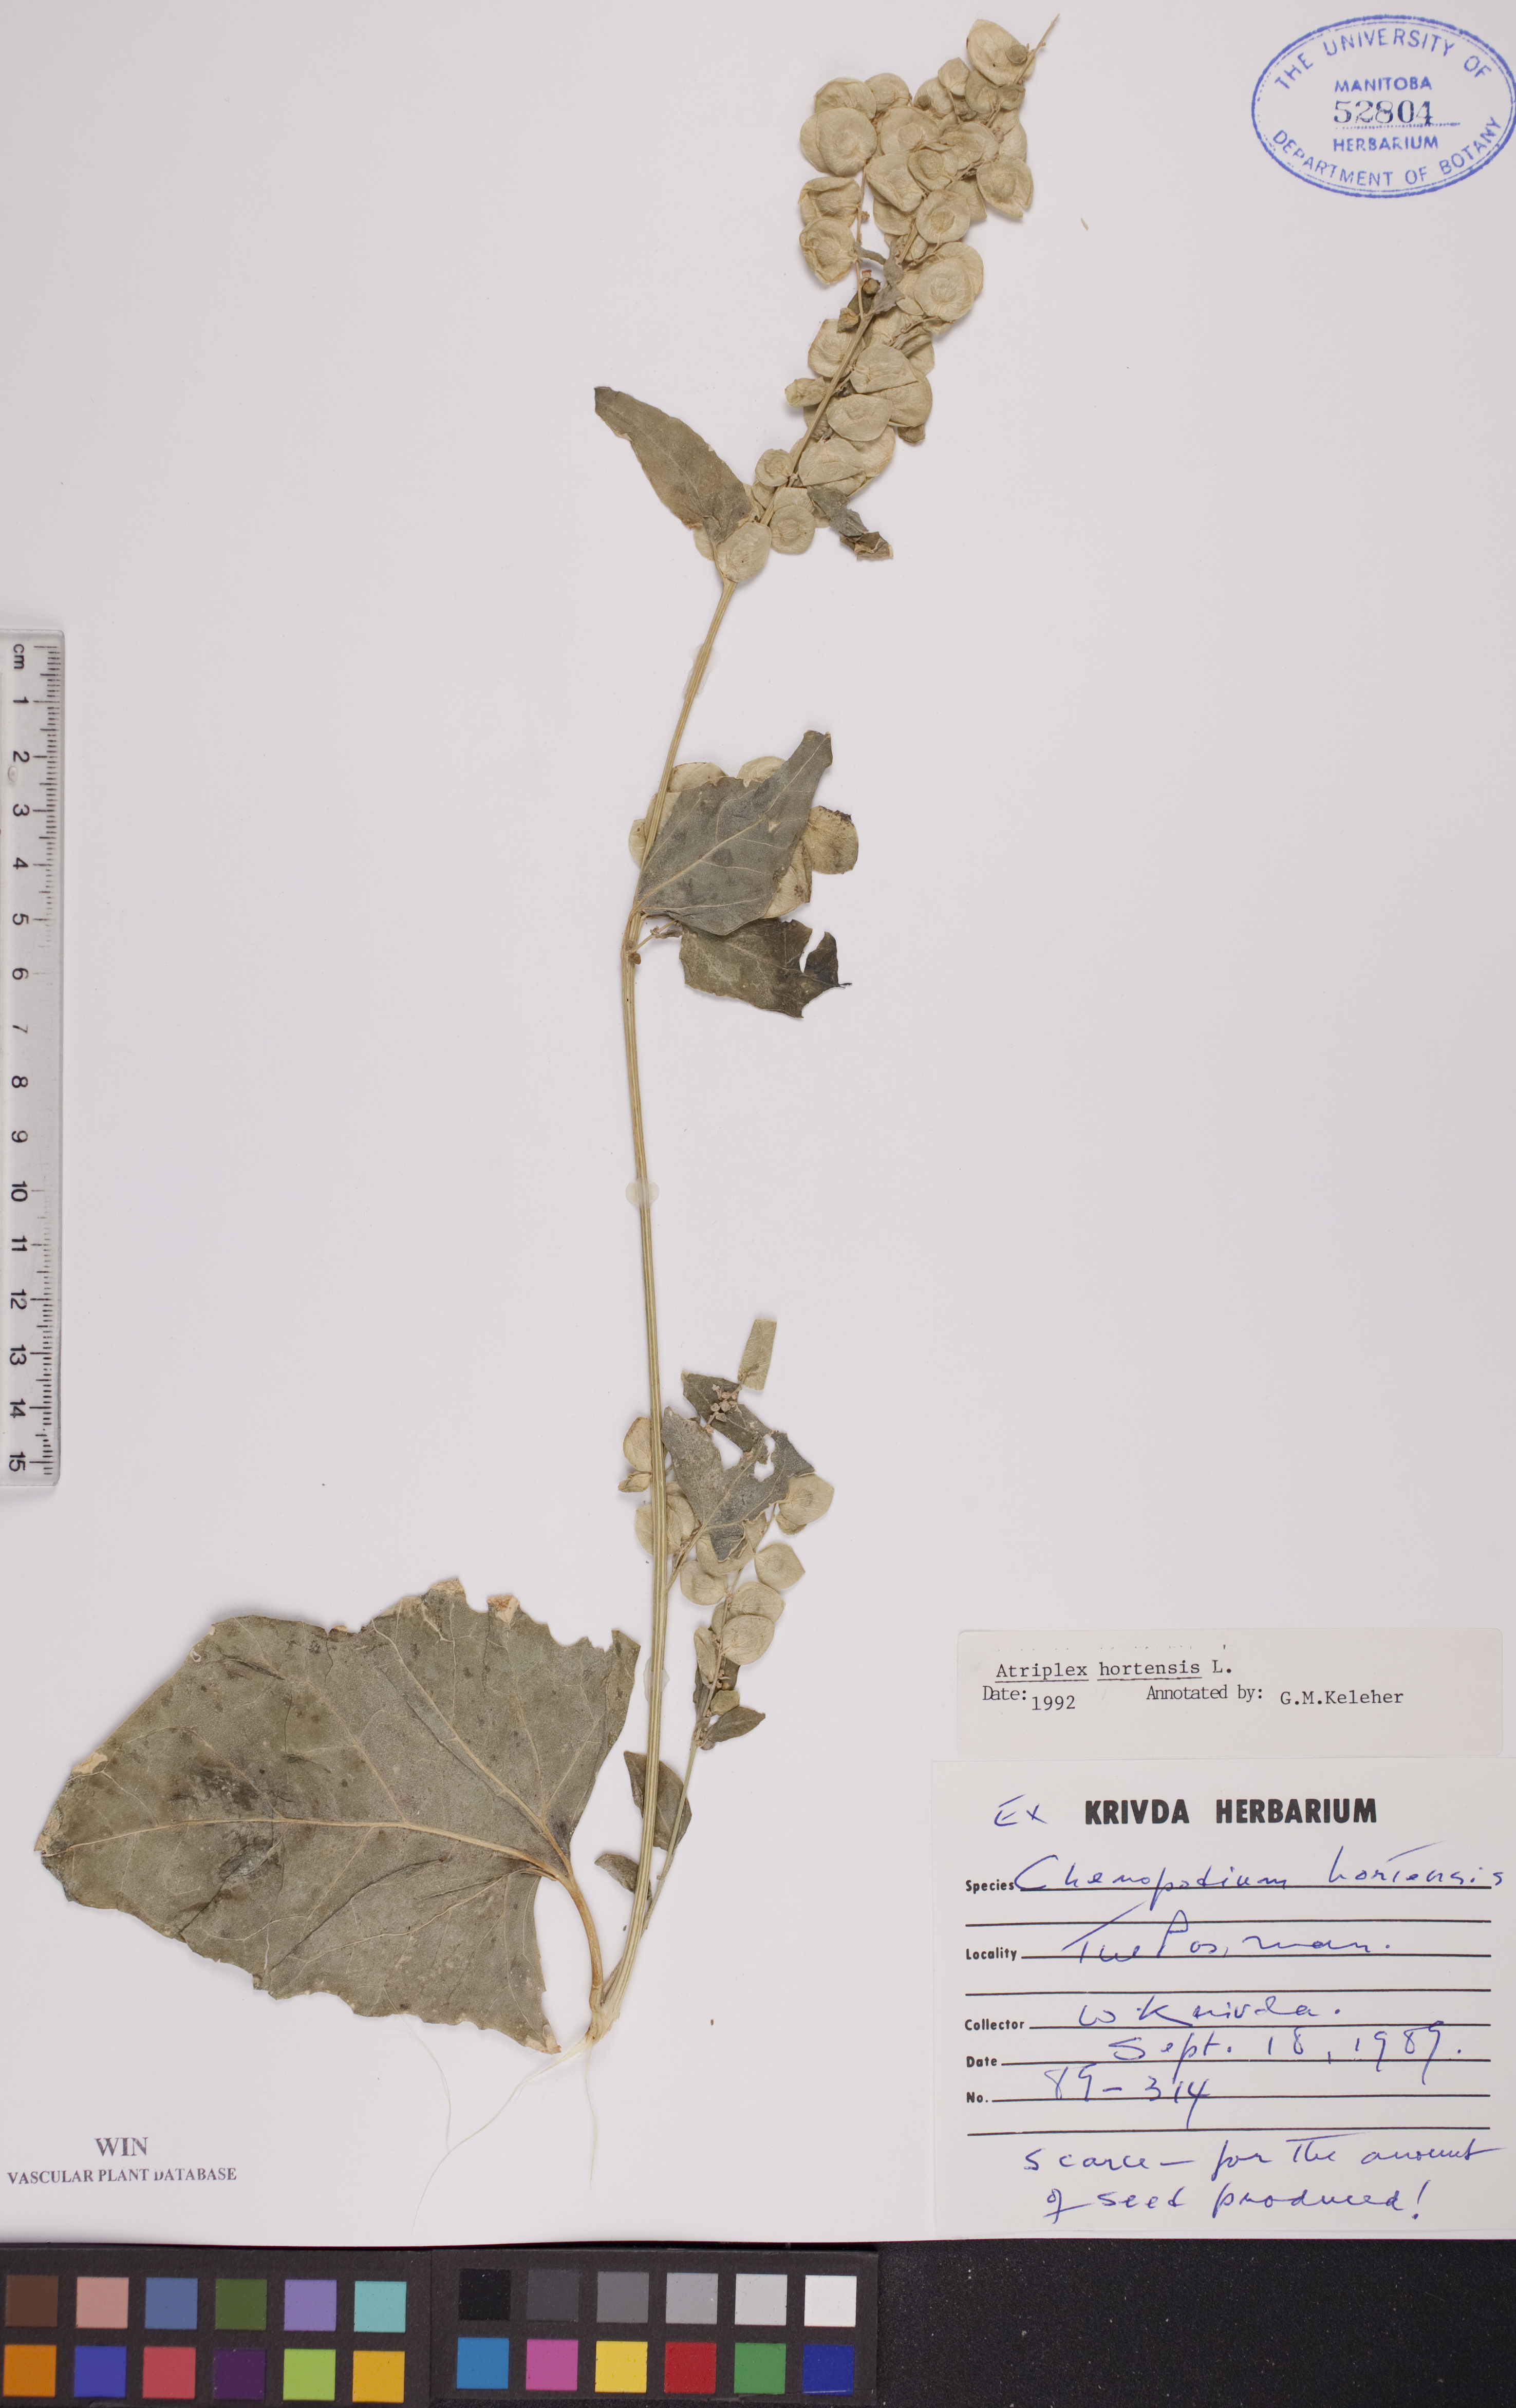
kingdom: Plantae
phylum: Tracheophyta
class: Magnoliopsida
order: Caryophyllales
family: Amaranthaceae
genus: Atriplex
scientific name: Atriplex hortensis
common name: Garden orache
